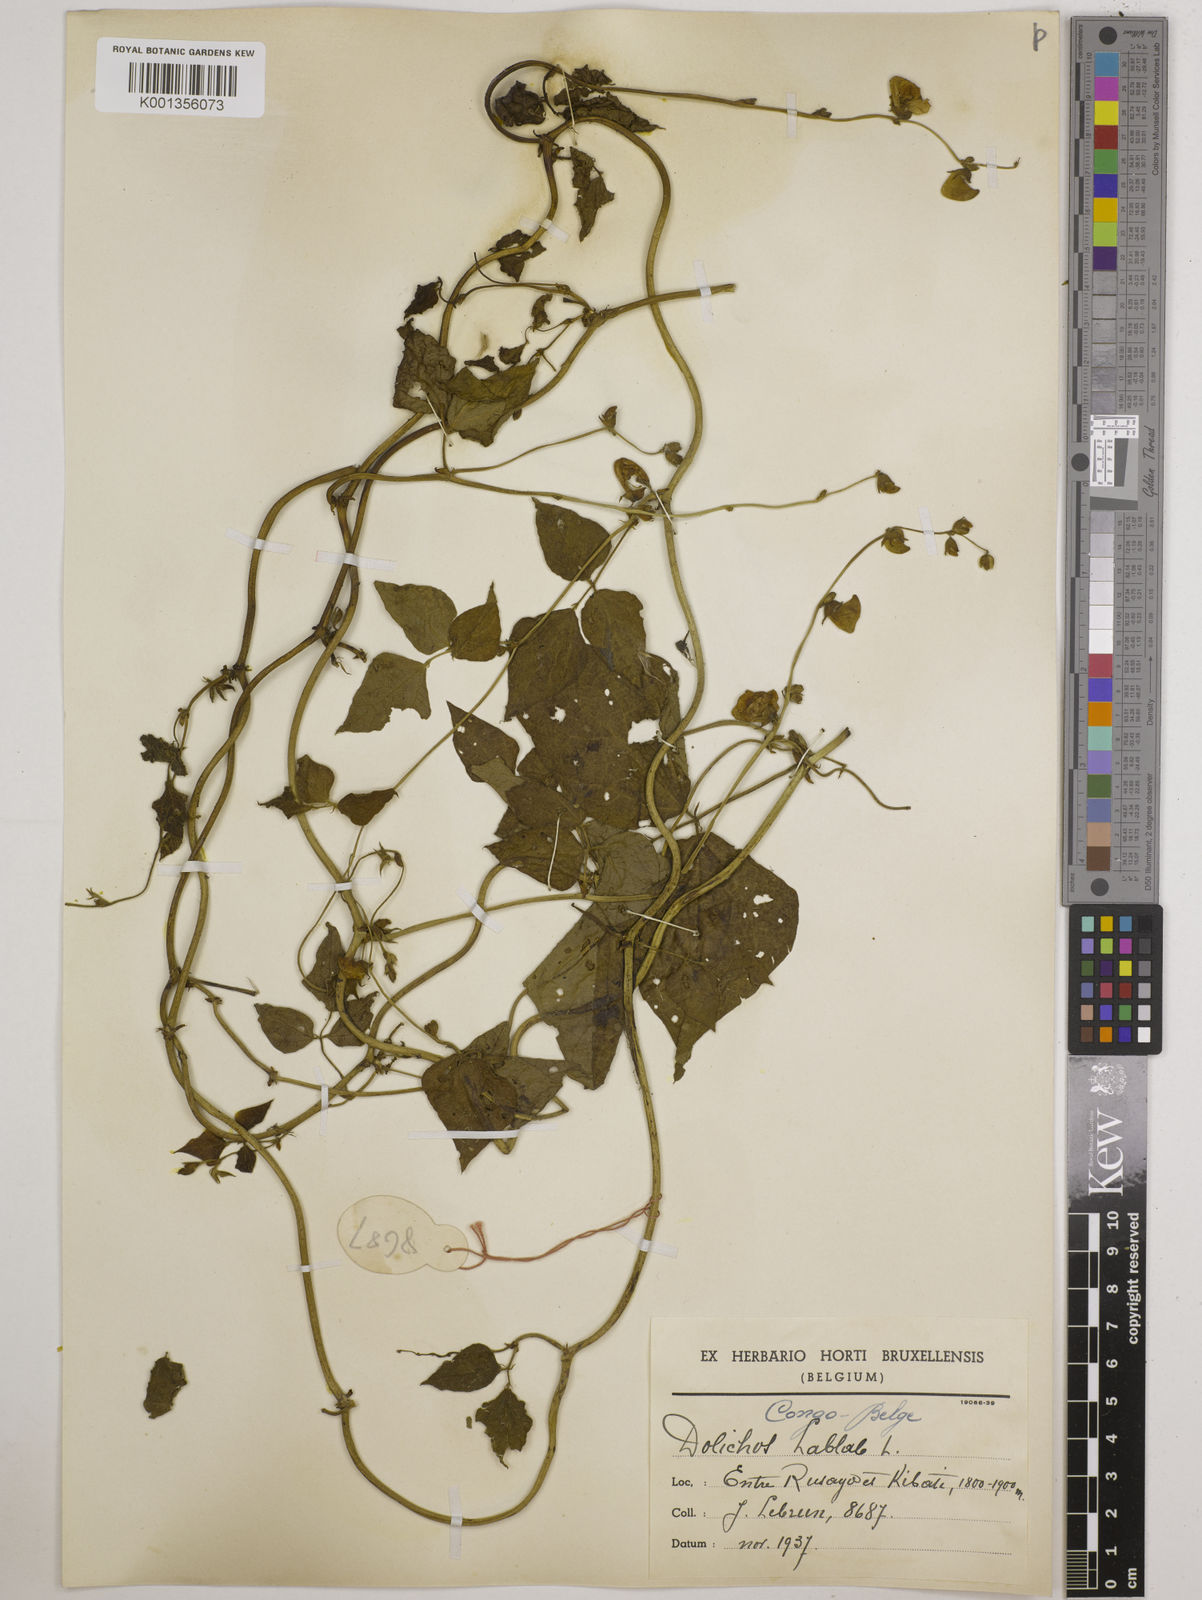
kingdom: Plantae
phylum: Tracheophyta
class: Magnoliopsida
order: Fabales
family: Fabaceae
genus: Lablab
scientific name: Lablab purpureus
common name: Lablab-bean
